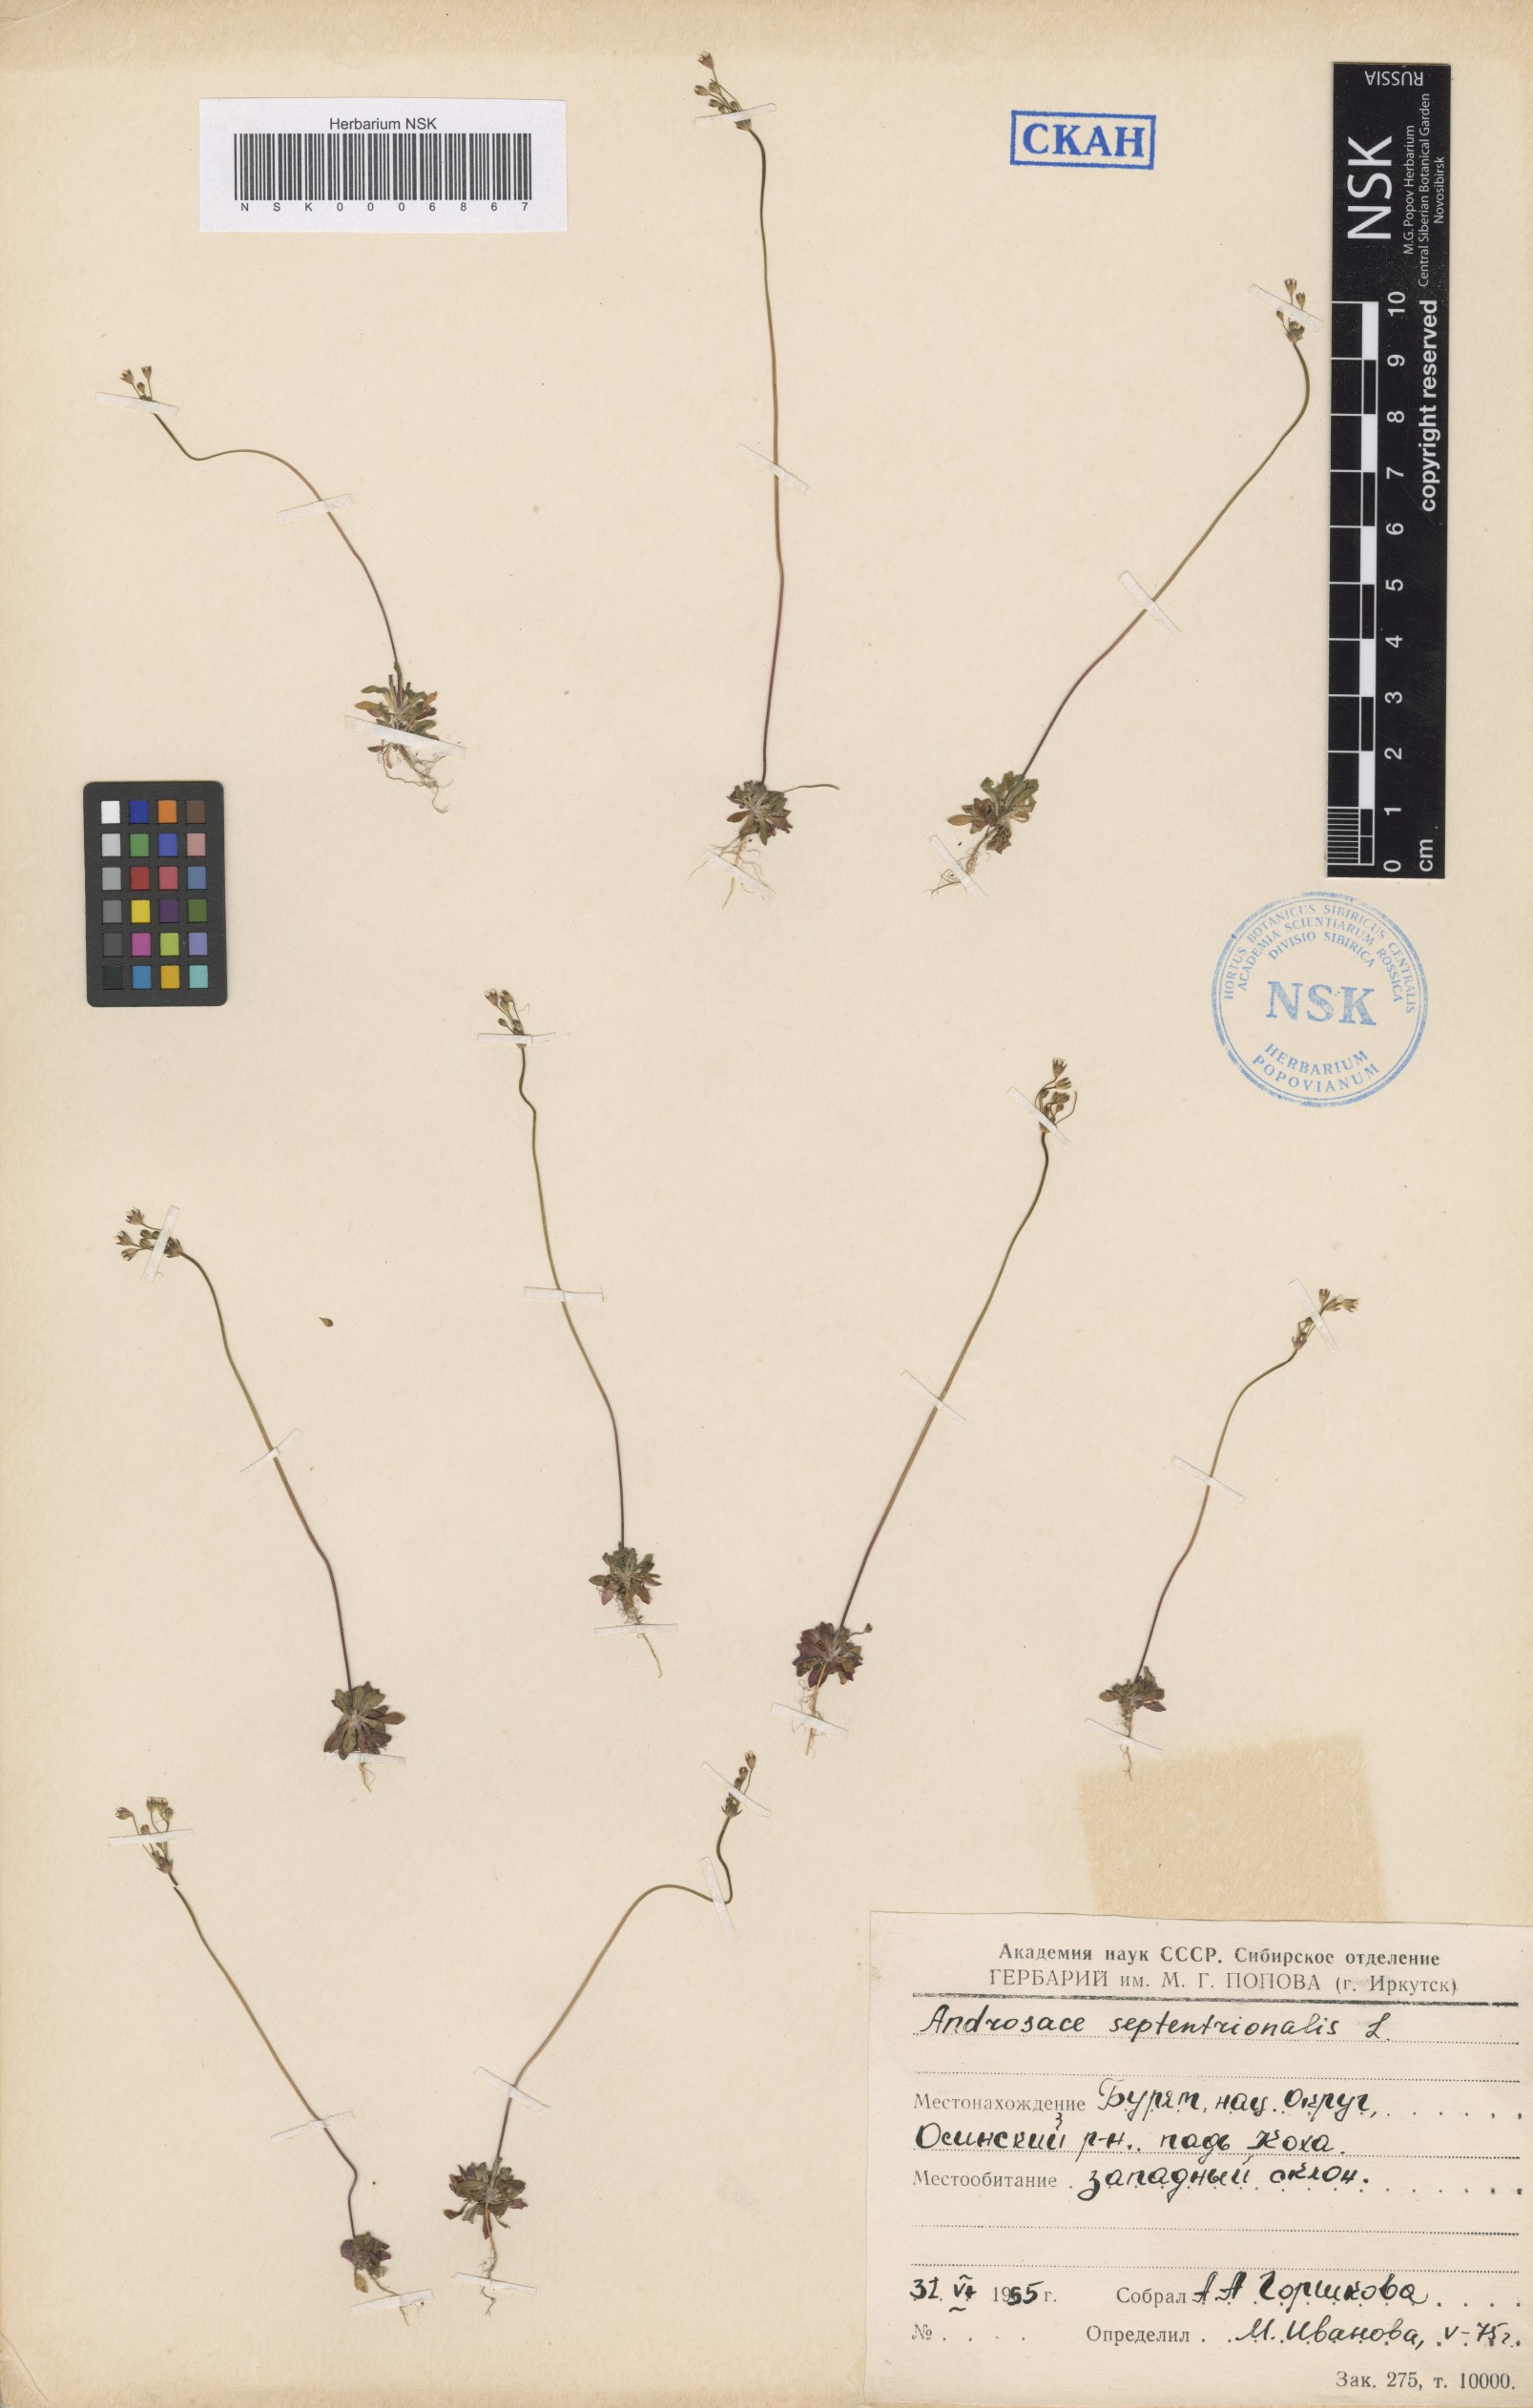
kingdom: Plantae
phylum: Tracheophyta
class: Magnoliopsida
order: Ericales
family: Primulaceae
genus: Androsace
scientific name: Androsace septentrionalis
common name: Hairy northern fairy-candelabra
